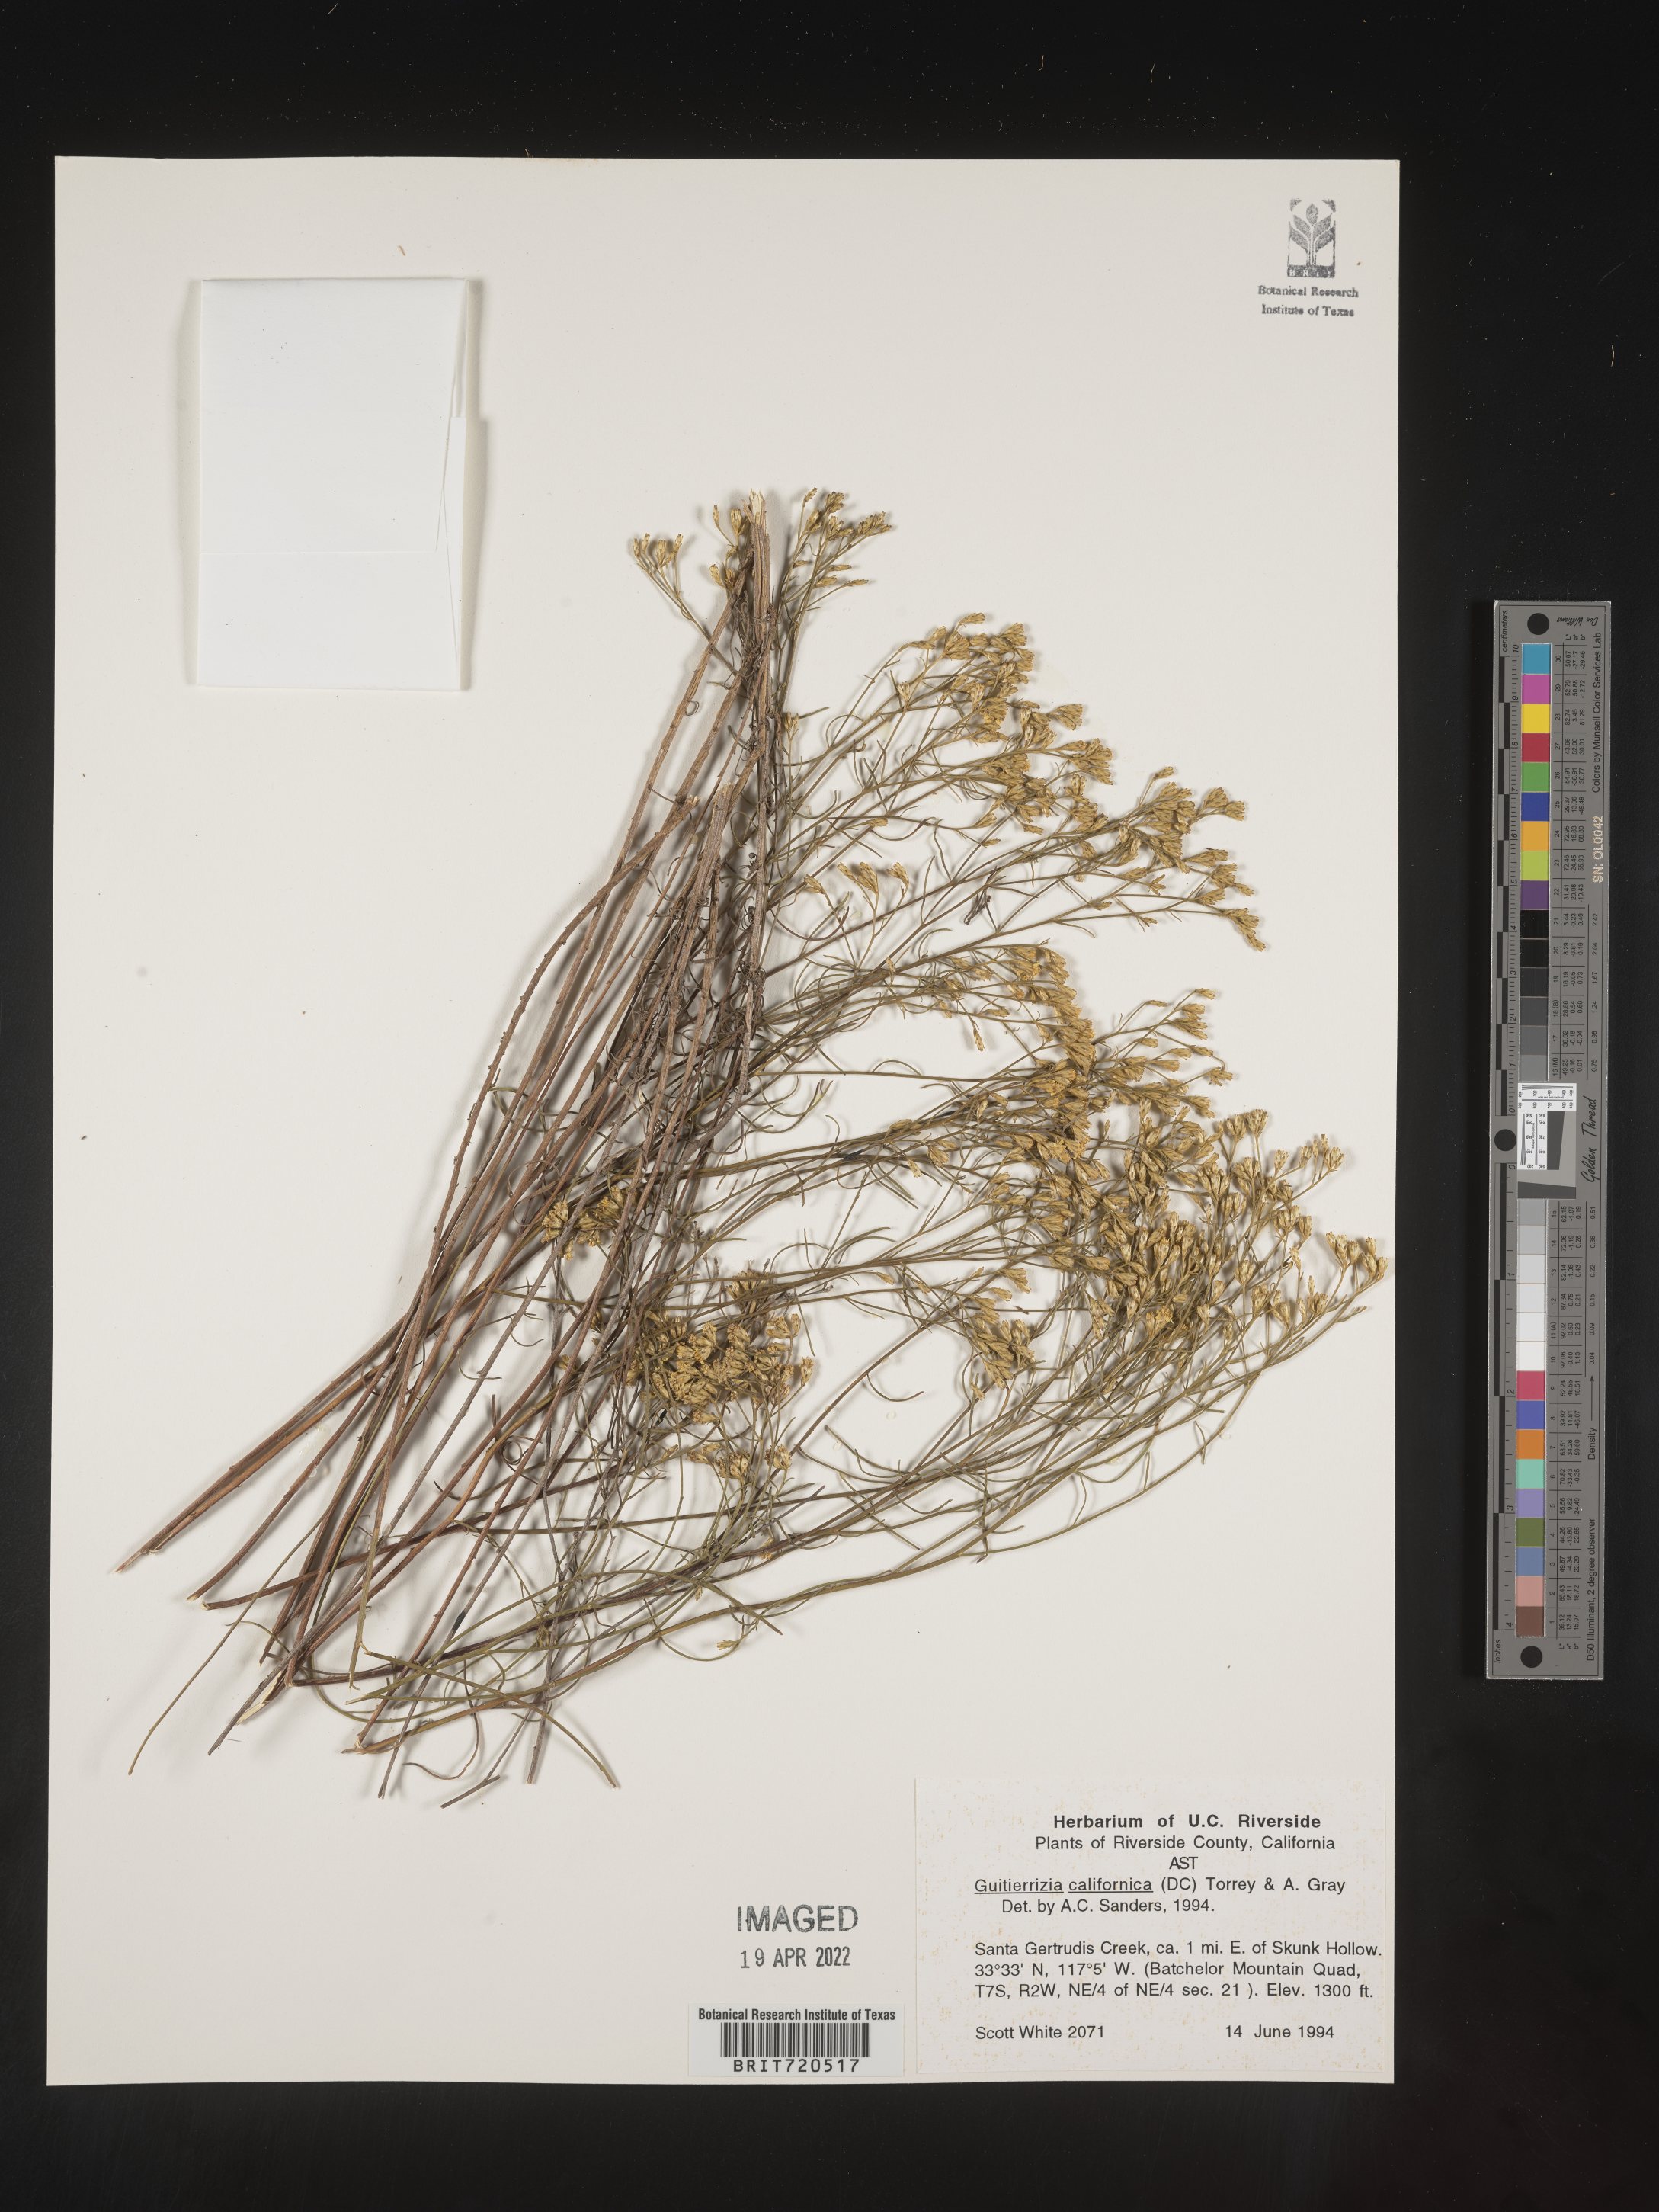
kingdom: Plantae
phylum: Tracheophyta
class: Magnoliopsida
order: Asterales
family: Asteraceae
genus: Gutierrezia
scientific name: Gutierrezia
